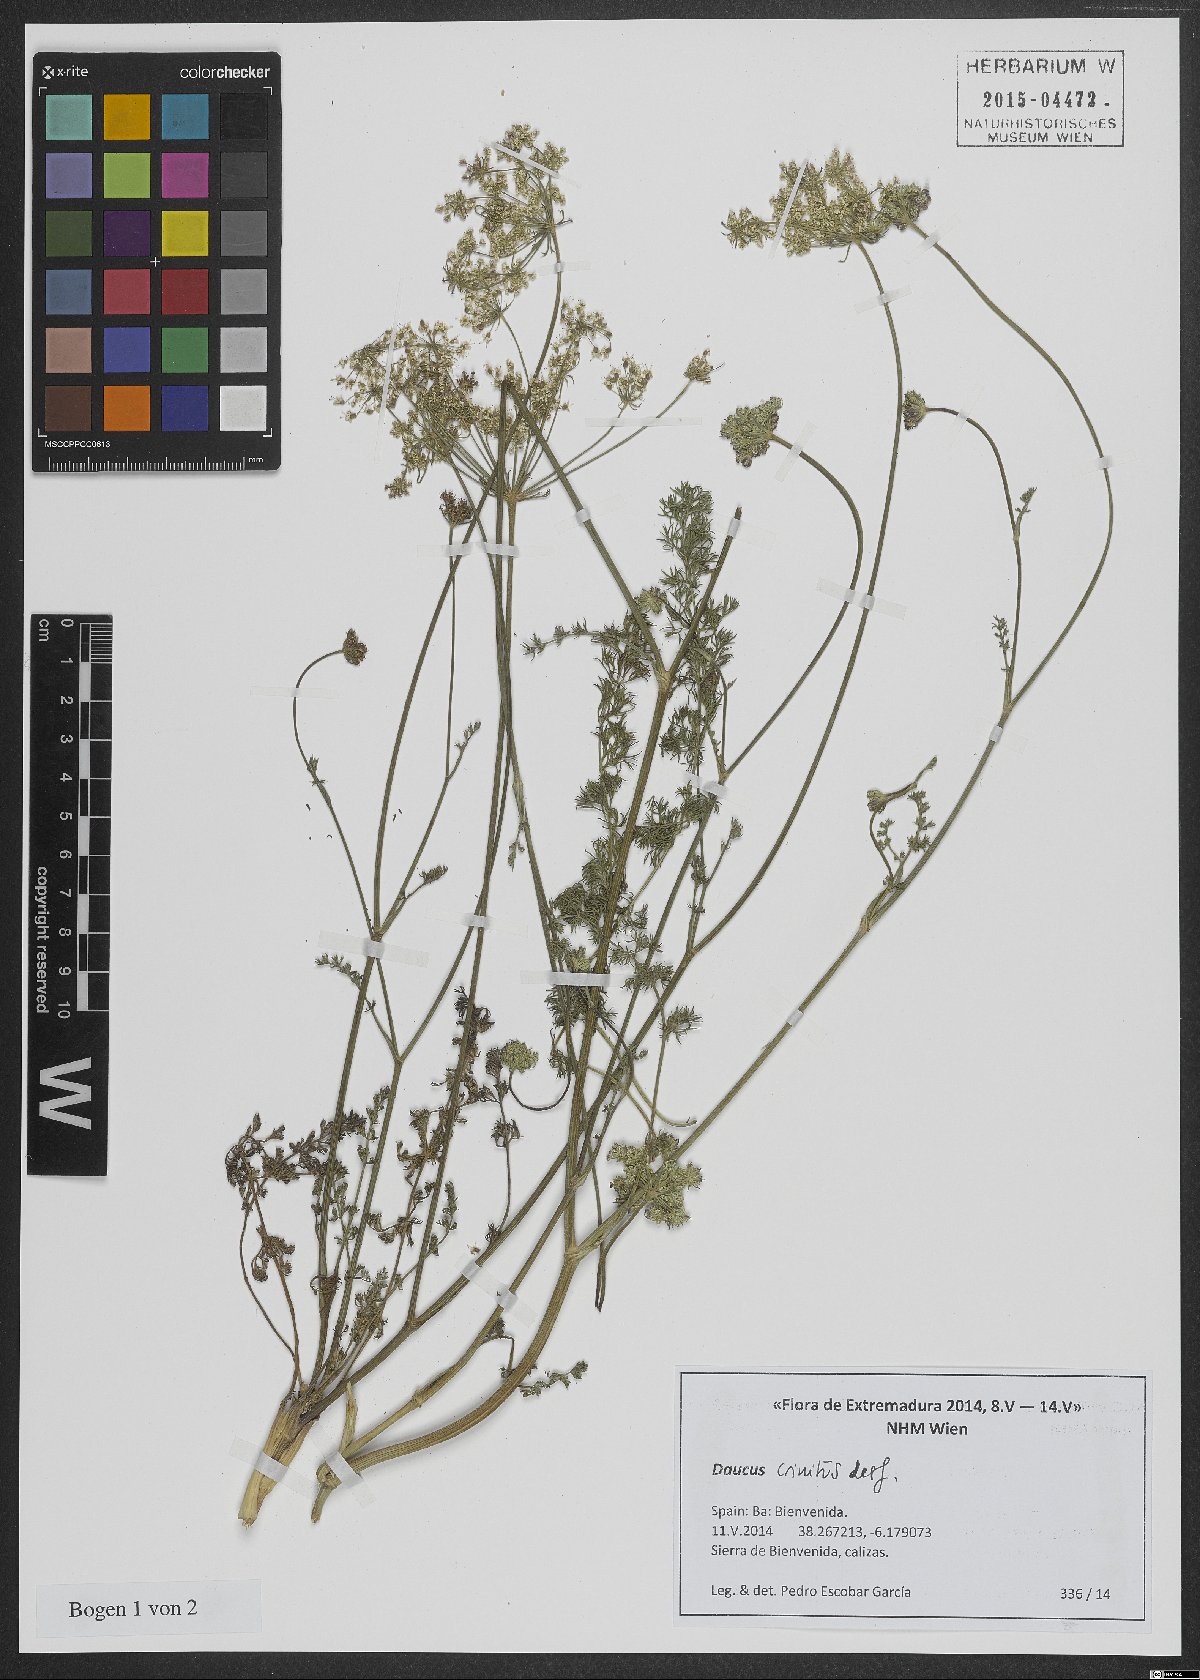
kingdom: Plantae
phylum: Tracheophyta
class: Magnoliopsida
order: Apiales
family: Apiaceae
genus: Daucus
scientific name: Daucus crinitus
